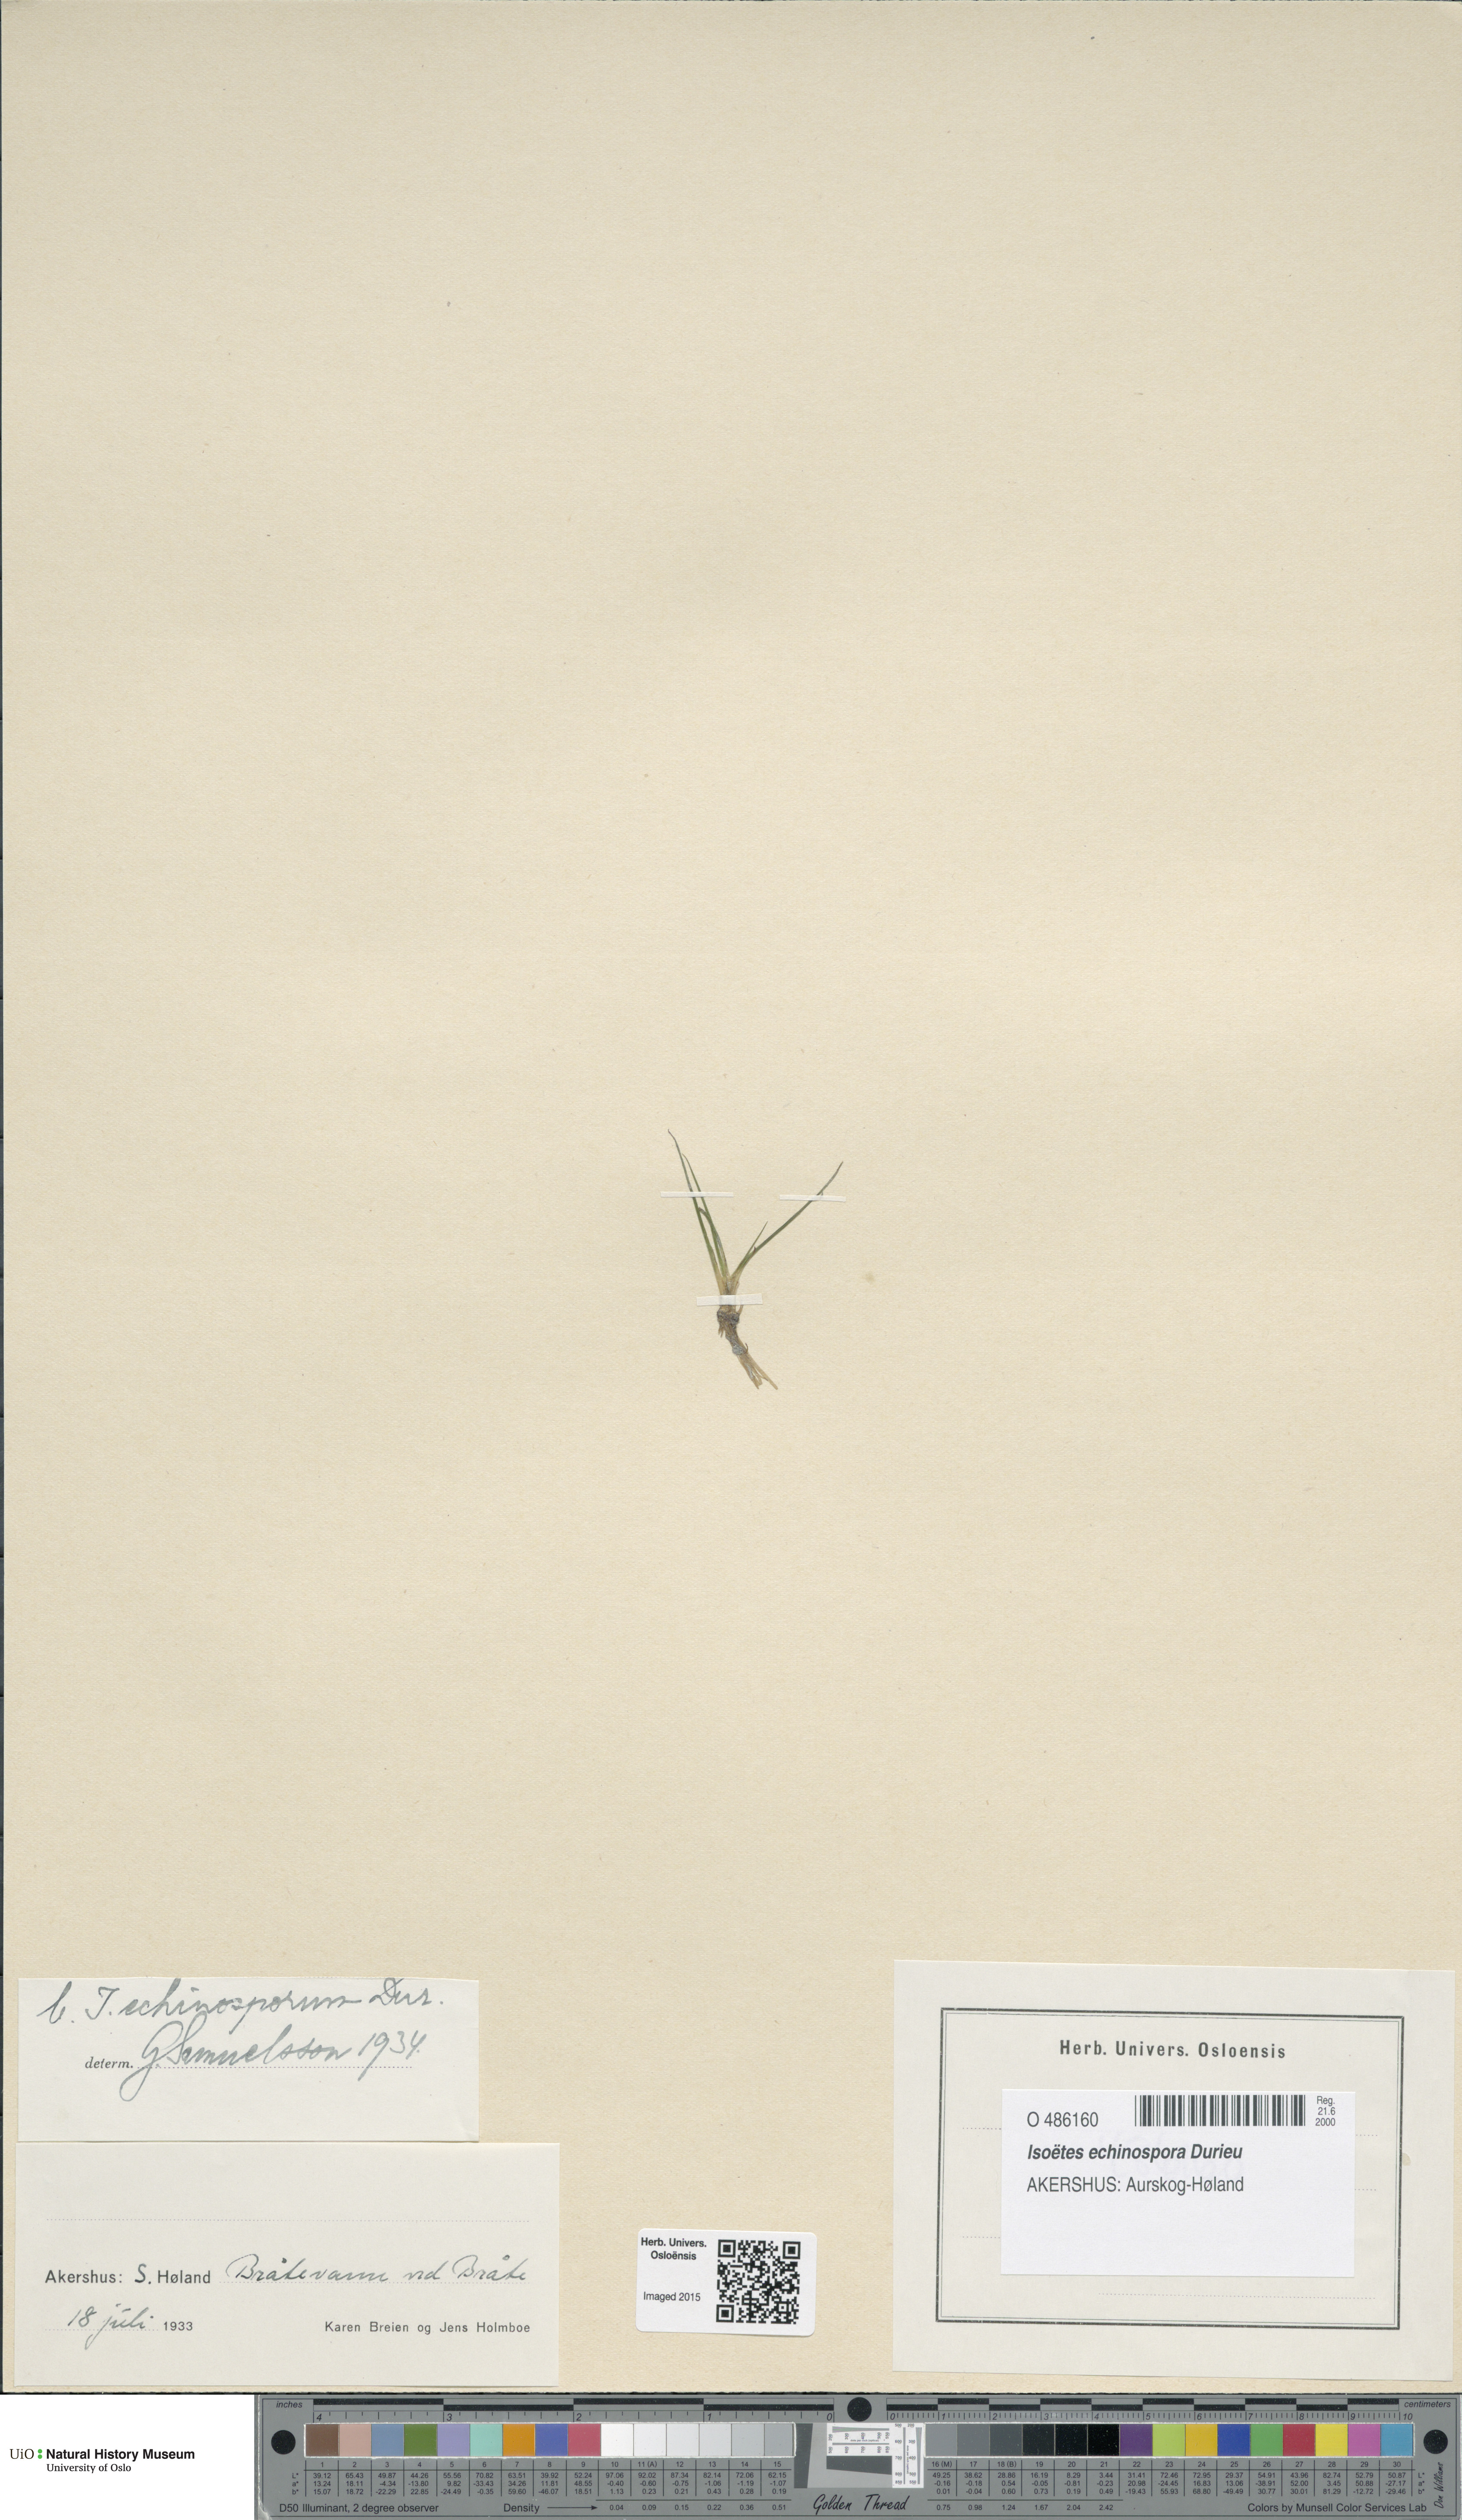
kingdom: Plantae
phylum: Tracheophyta
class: Lycopodiopsida
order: Isoetales
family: Isoetaceae
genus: Isoetes
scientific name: Isoetes echinospora
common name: Spring quillwort
